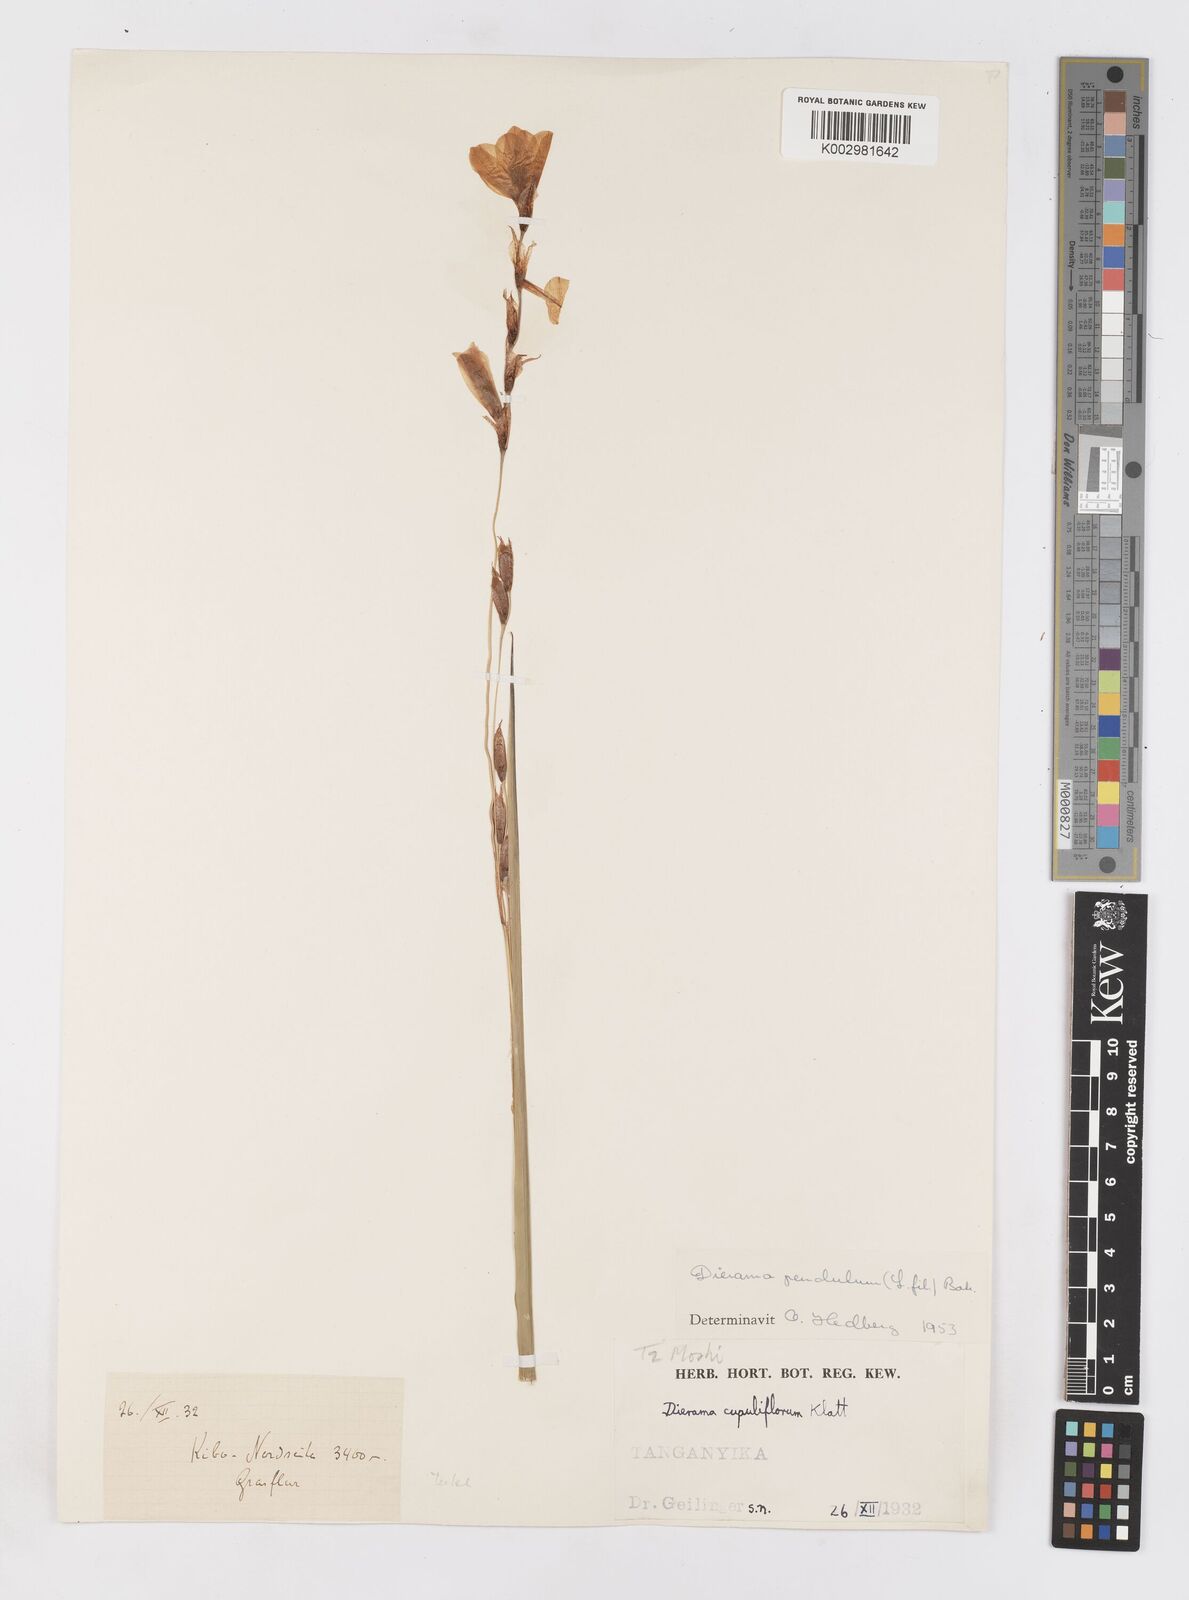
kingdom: Plantae
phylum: Tracheophyta
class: Liliopsida
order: Asparagales
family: Iridaceae
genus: Dierama
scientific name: Dierama cupuliflorum
